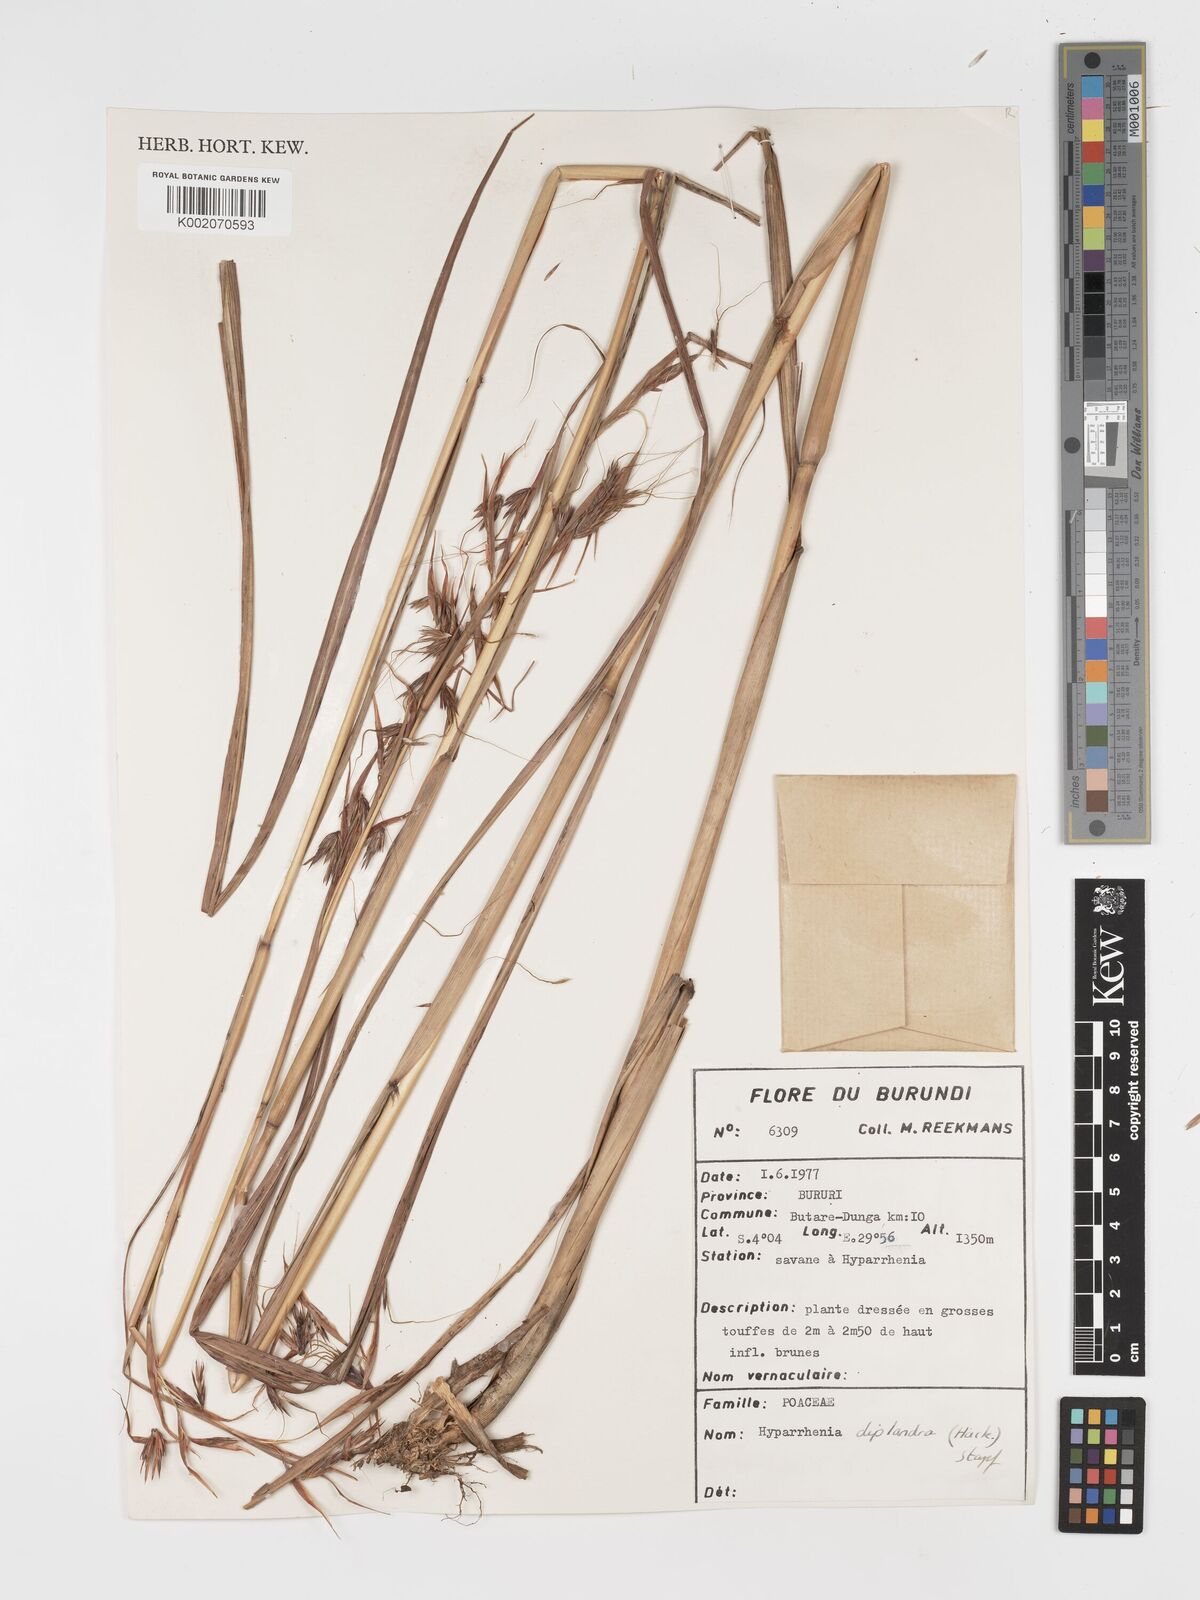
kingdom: Plantae
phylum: Tracheophyta
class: Liliopsida
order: Poales
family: Poaceae
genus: Hyparrhenia
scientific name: Hyparrhenia diplandra
